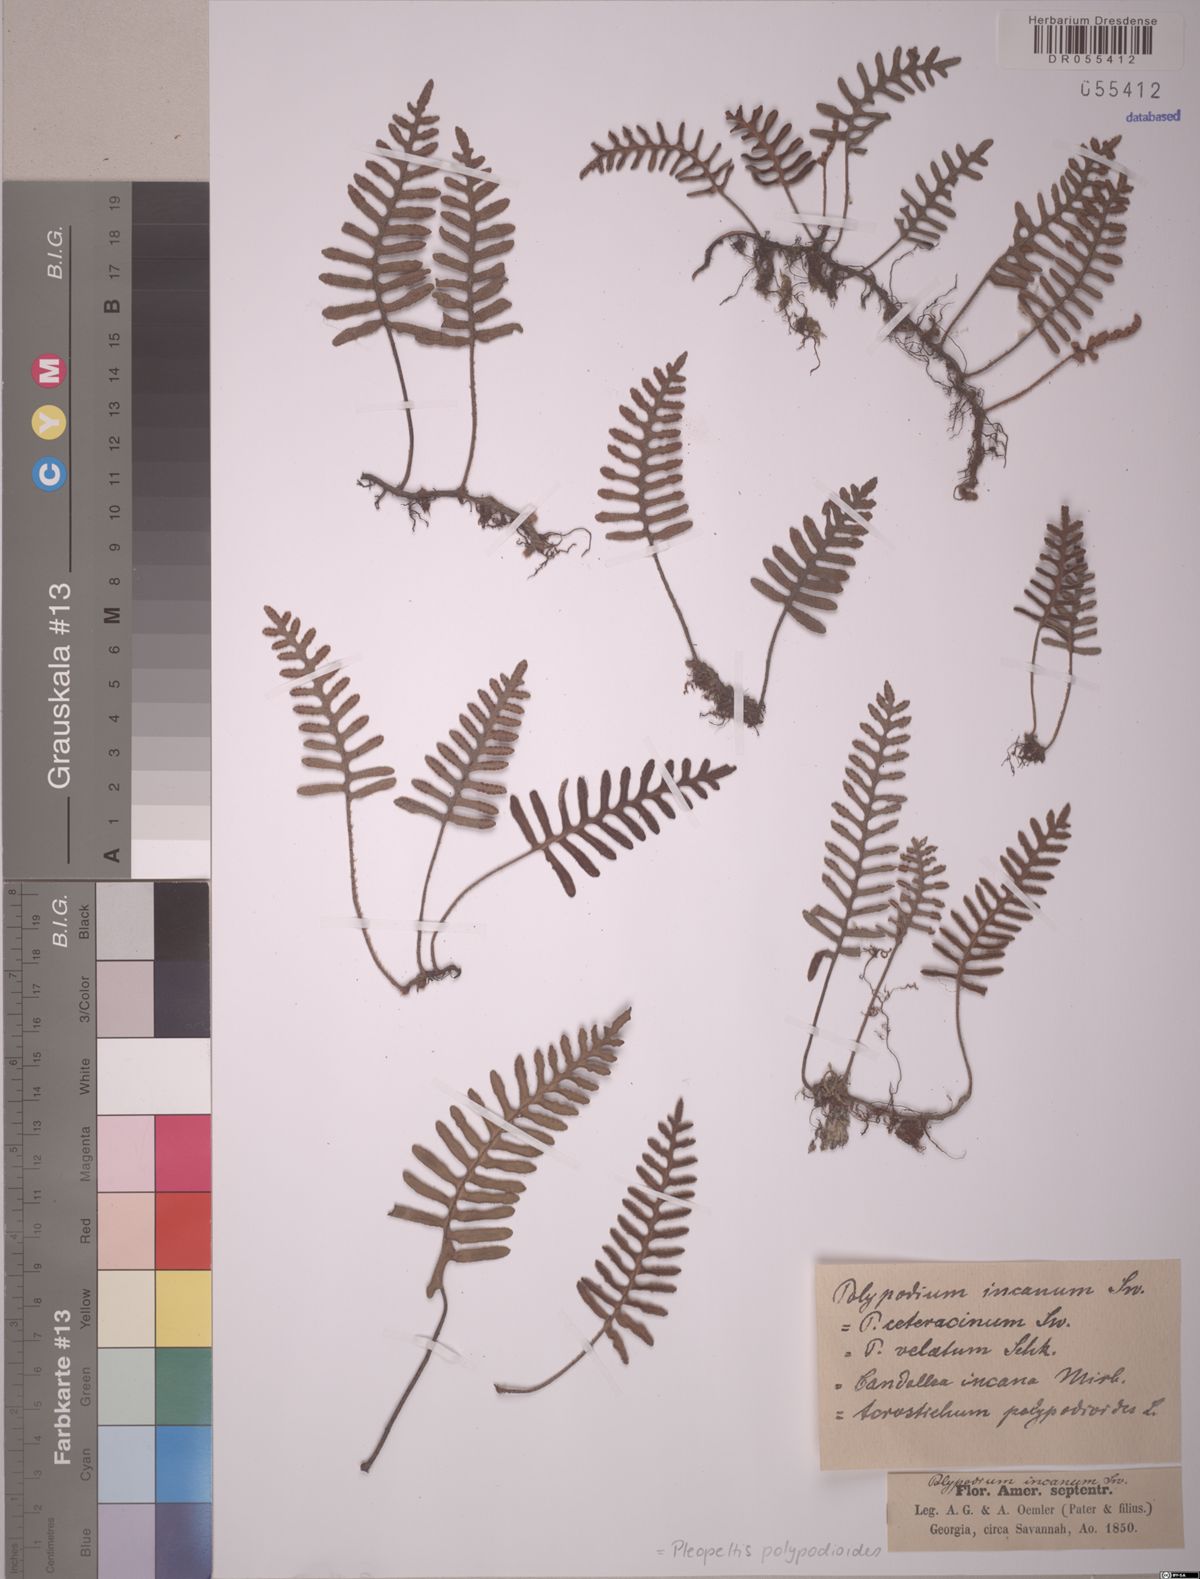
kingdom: Plantae
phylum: Tracheophyta
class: Polypodiopsida
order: Polypodiales
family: Polypodiaceae
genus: Pleopeltis
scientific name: Pleopeltis polypodioides
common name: Resurrection fern
